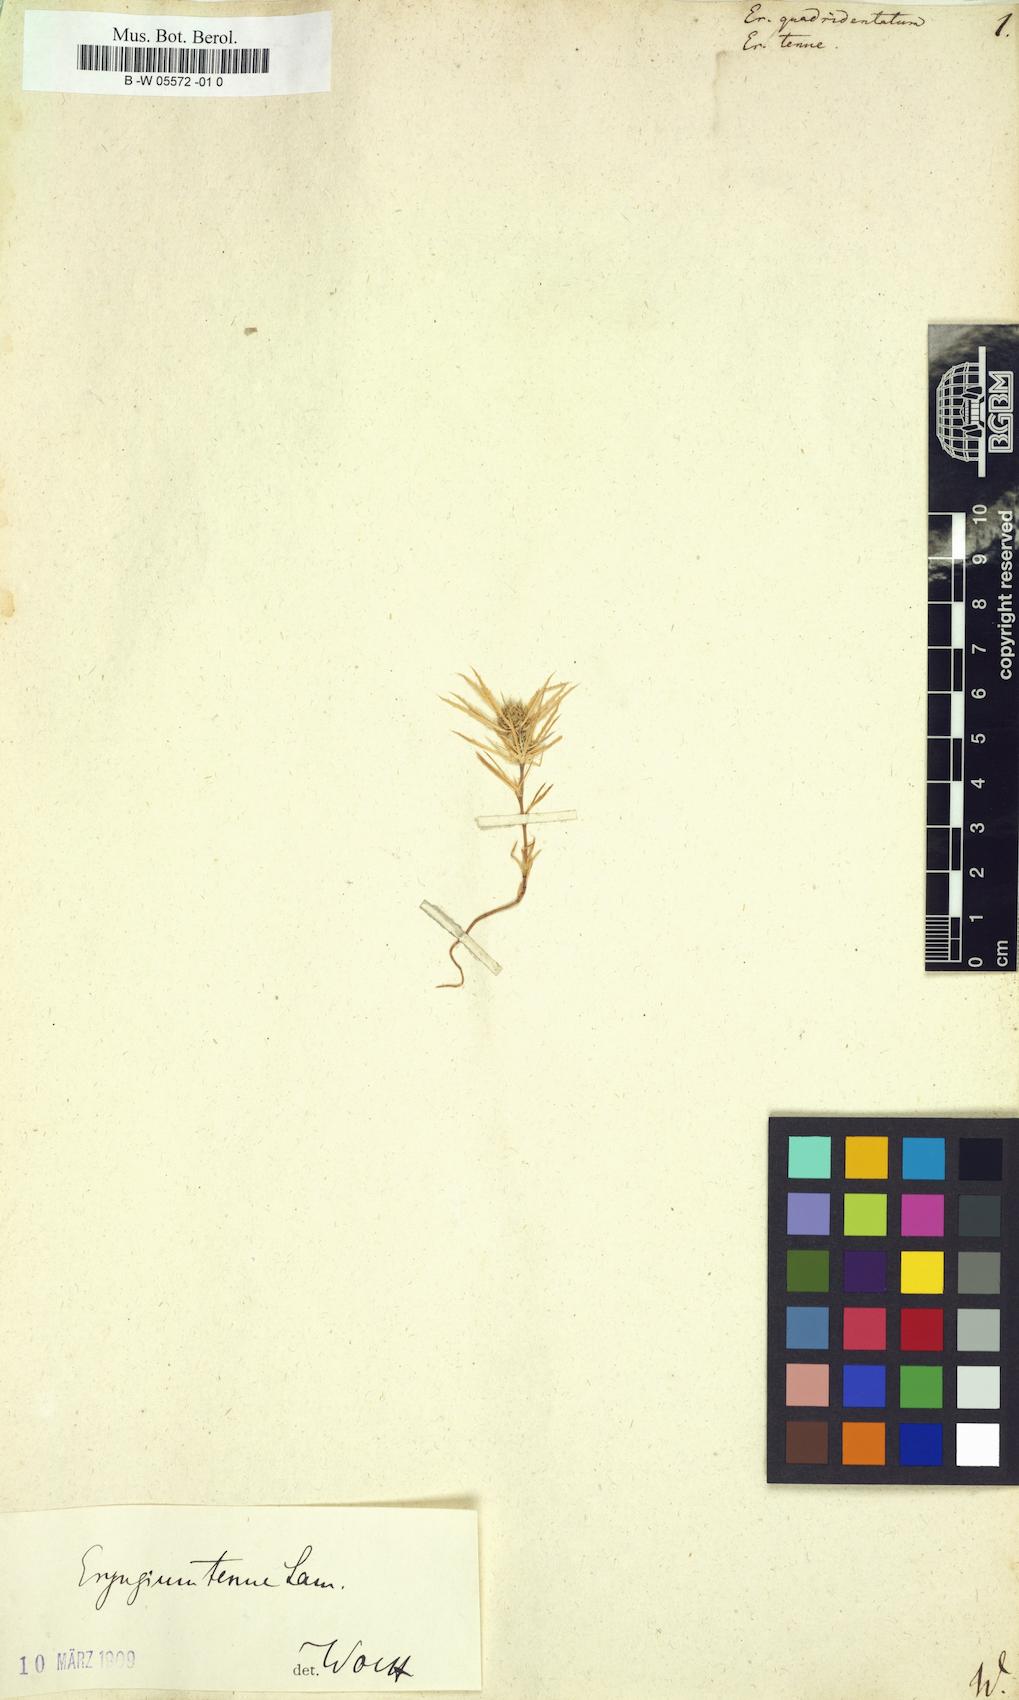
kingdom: Plantae
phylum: Tracheophyta
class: Magnoliopsida
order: Apiales
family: Apiaceae
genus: Eryngium
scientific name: Eryngium
